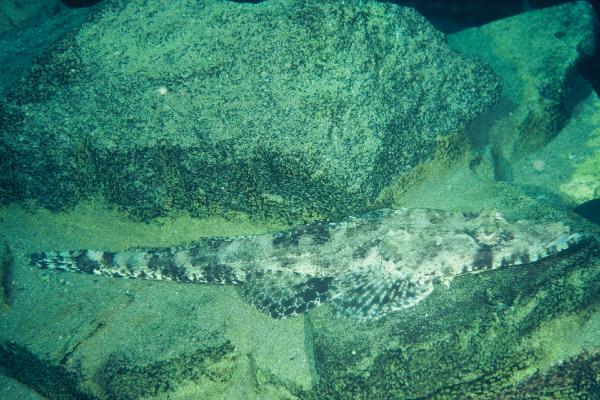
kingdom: Animalia
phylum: Chordata
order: Scorpaeniformes
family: Platycephalidae
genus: Onigocia
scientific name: Onigocia oligolepis
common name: Dwarf flathead
